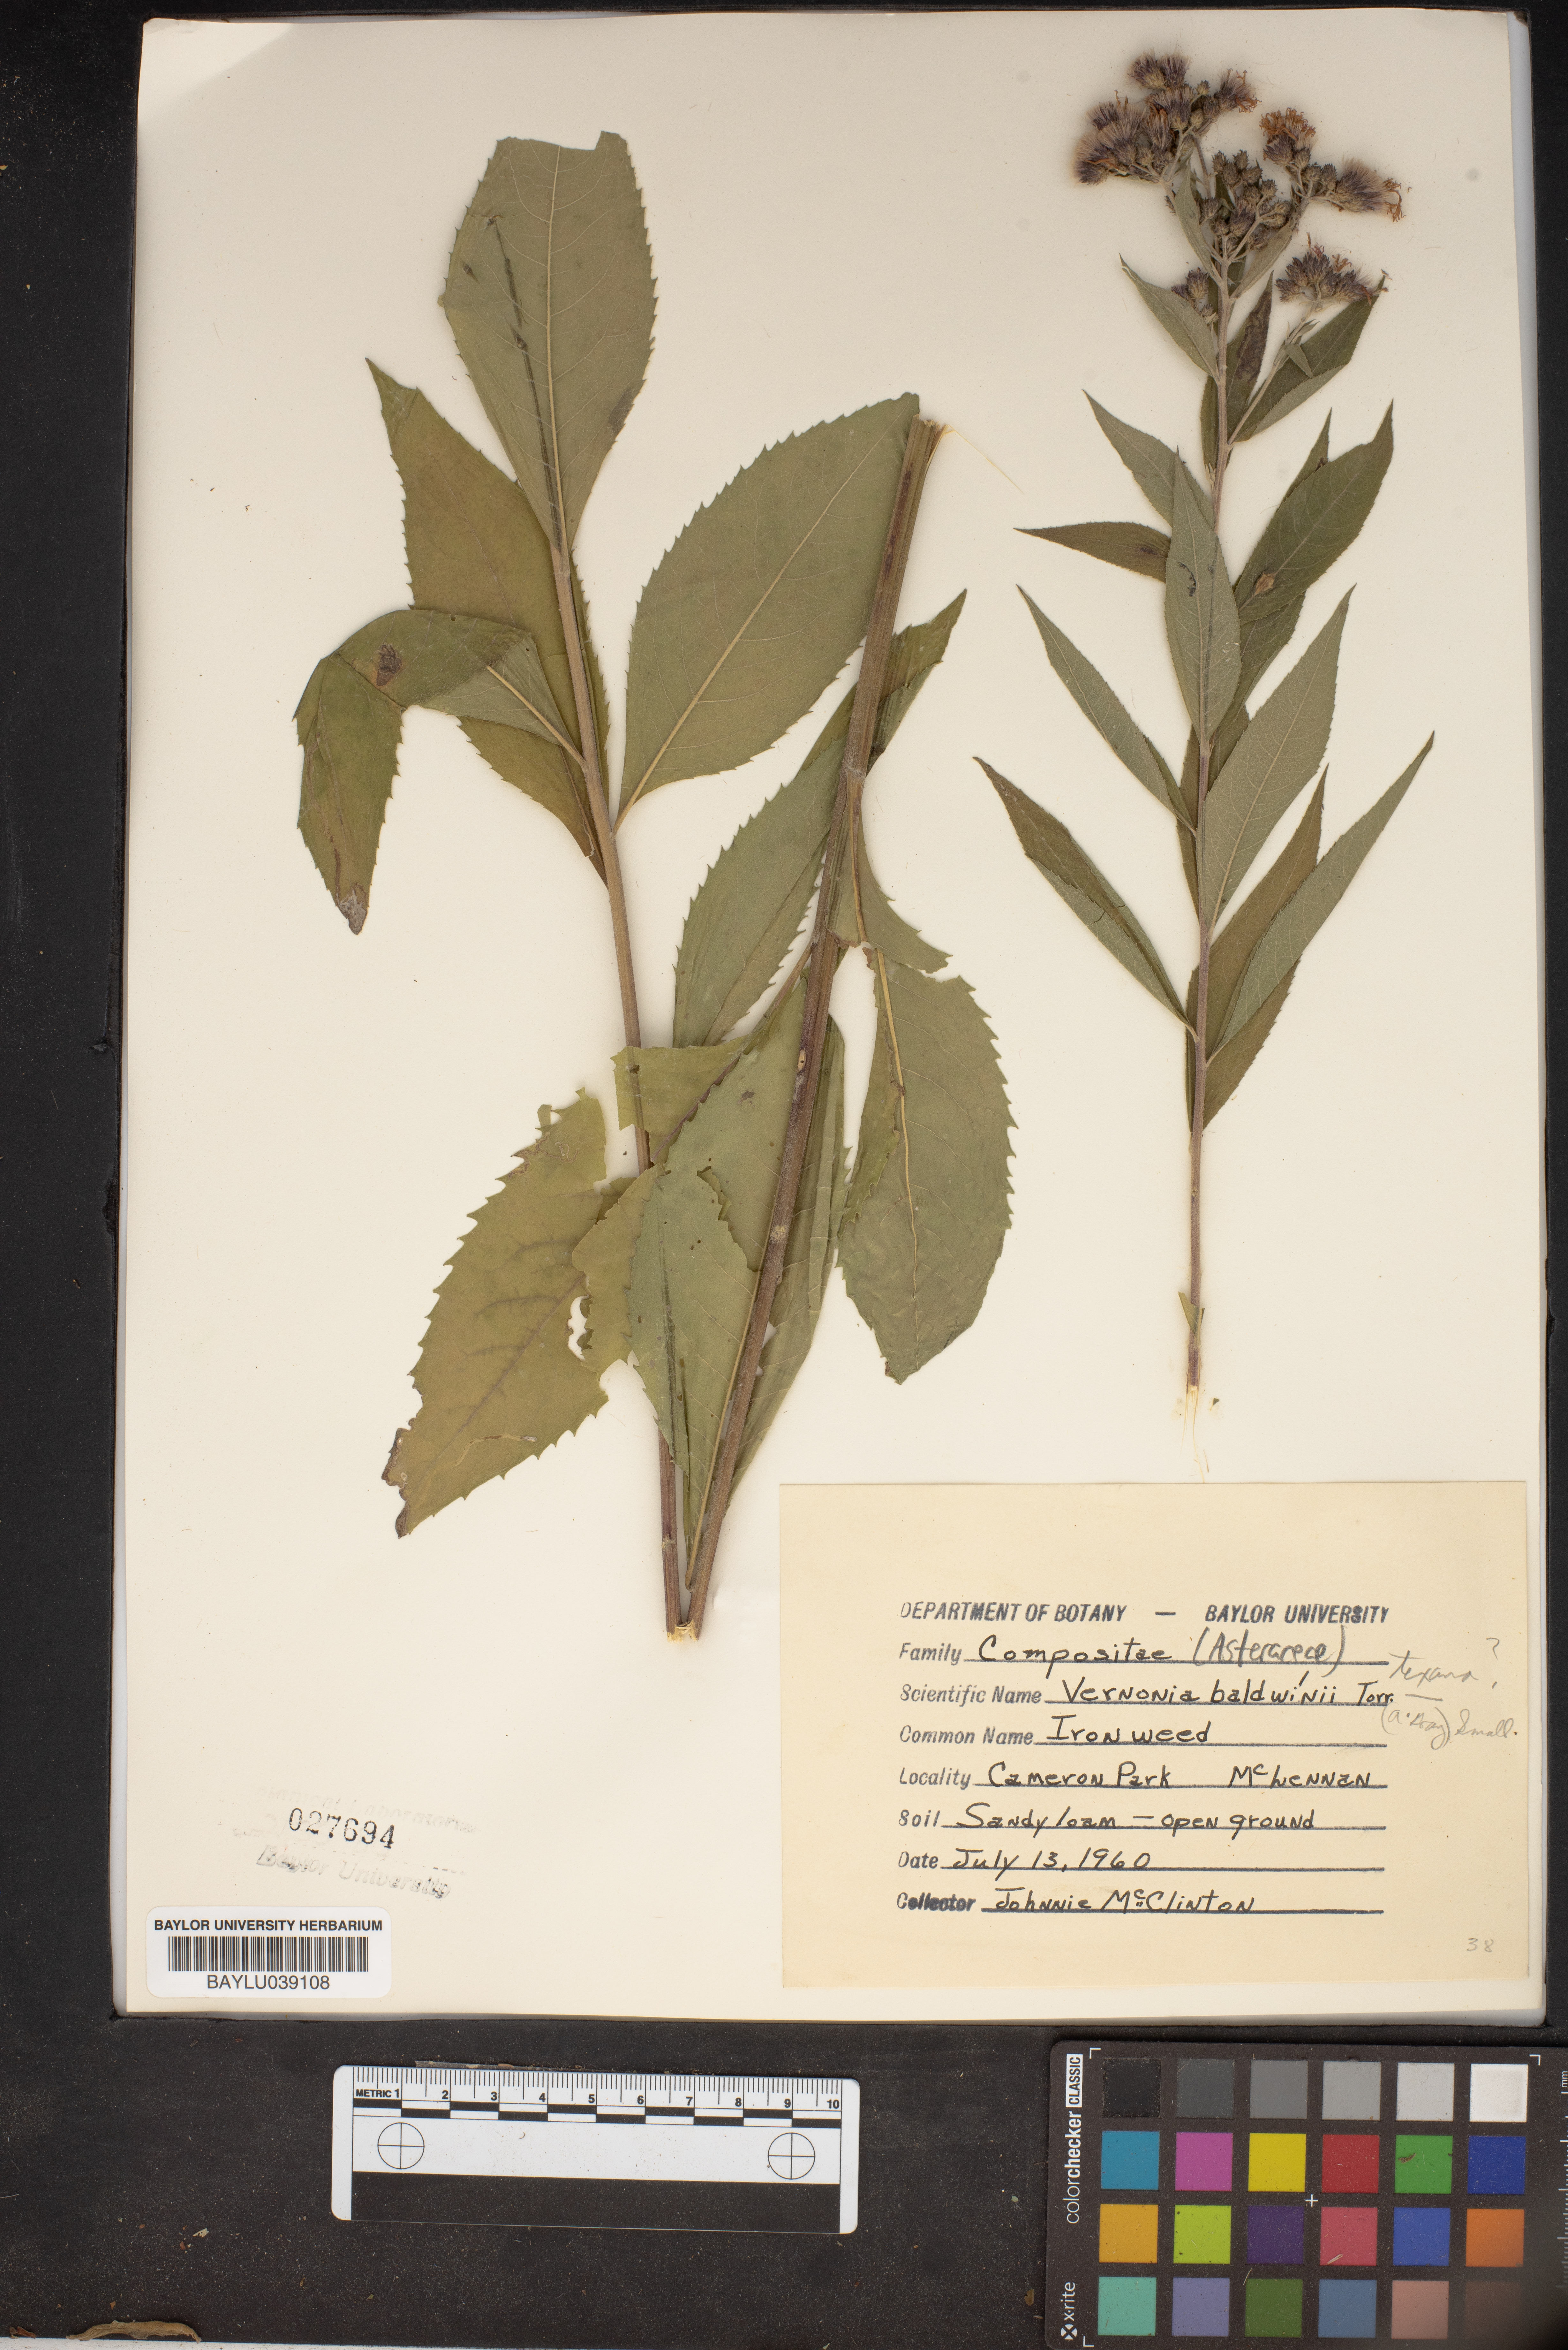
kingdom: Plantae
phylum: Tracheophyta
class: Magnoliopsida
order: Asterales
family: Asteraceae
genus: Vernonia
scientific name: Vernonia baldwinii
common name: Western ironweed
